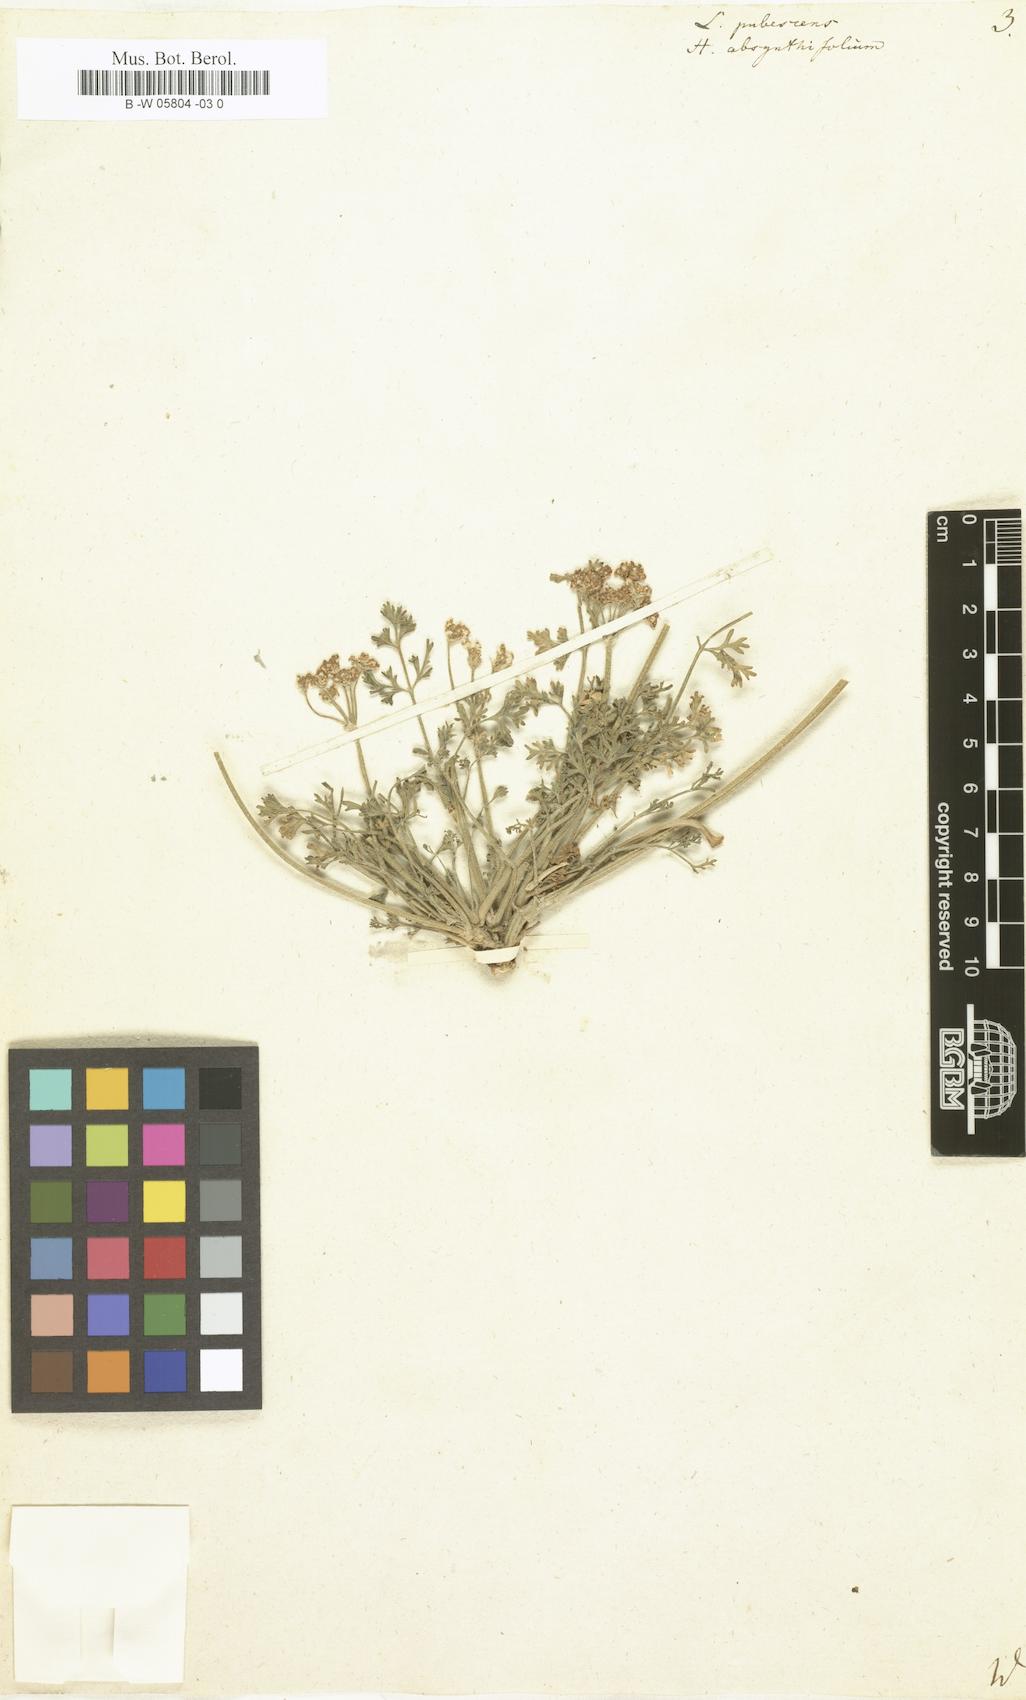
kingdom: Plantae
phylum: Tracheophyta
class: Magnoliopsida
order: Apiales
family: Apiaceae
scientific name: Apiaceae
